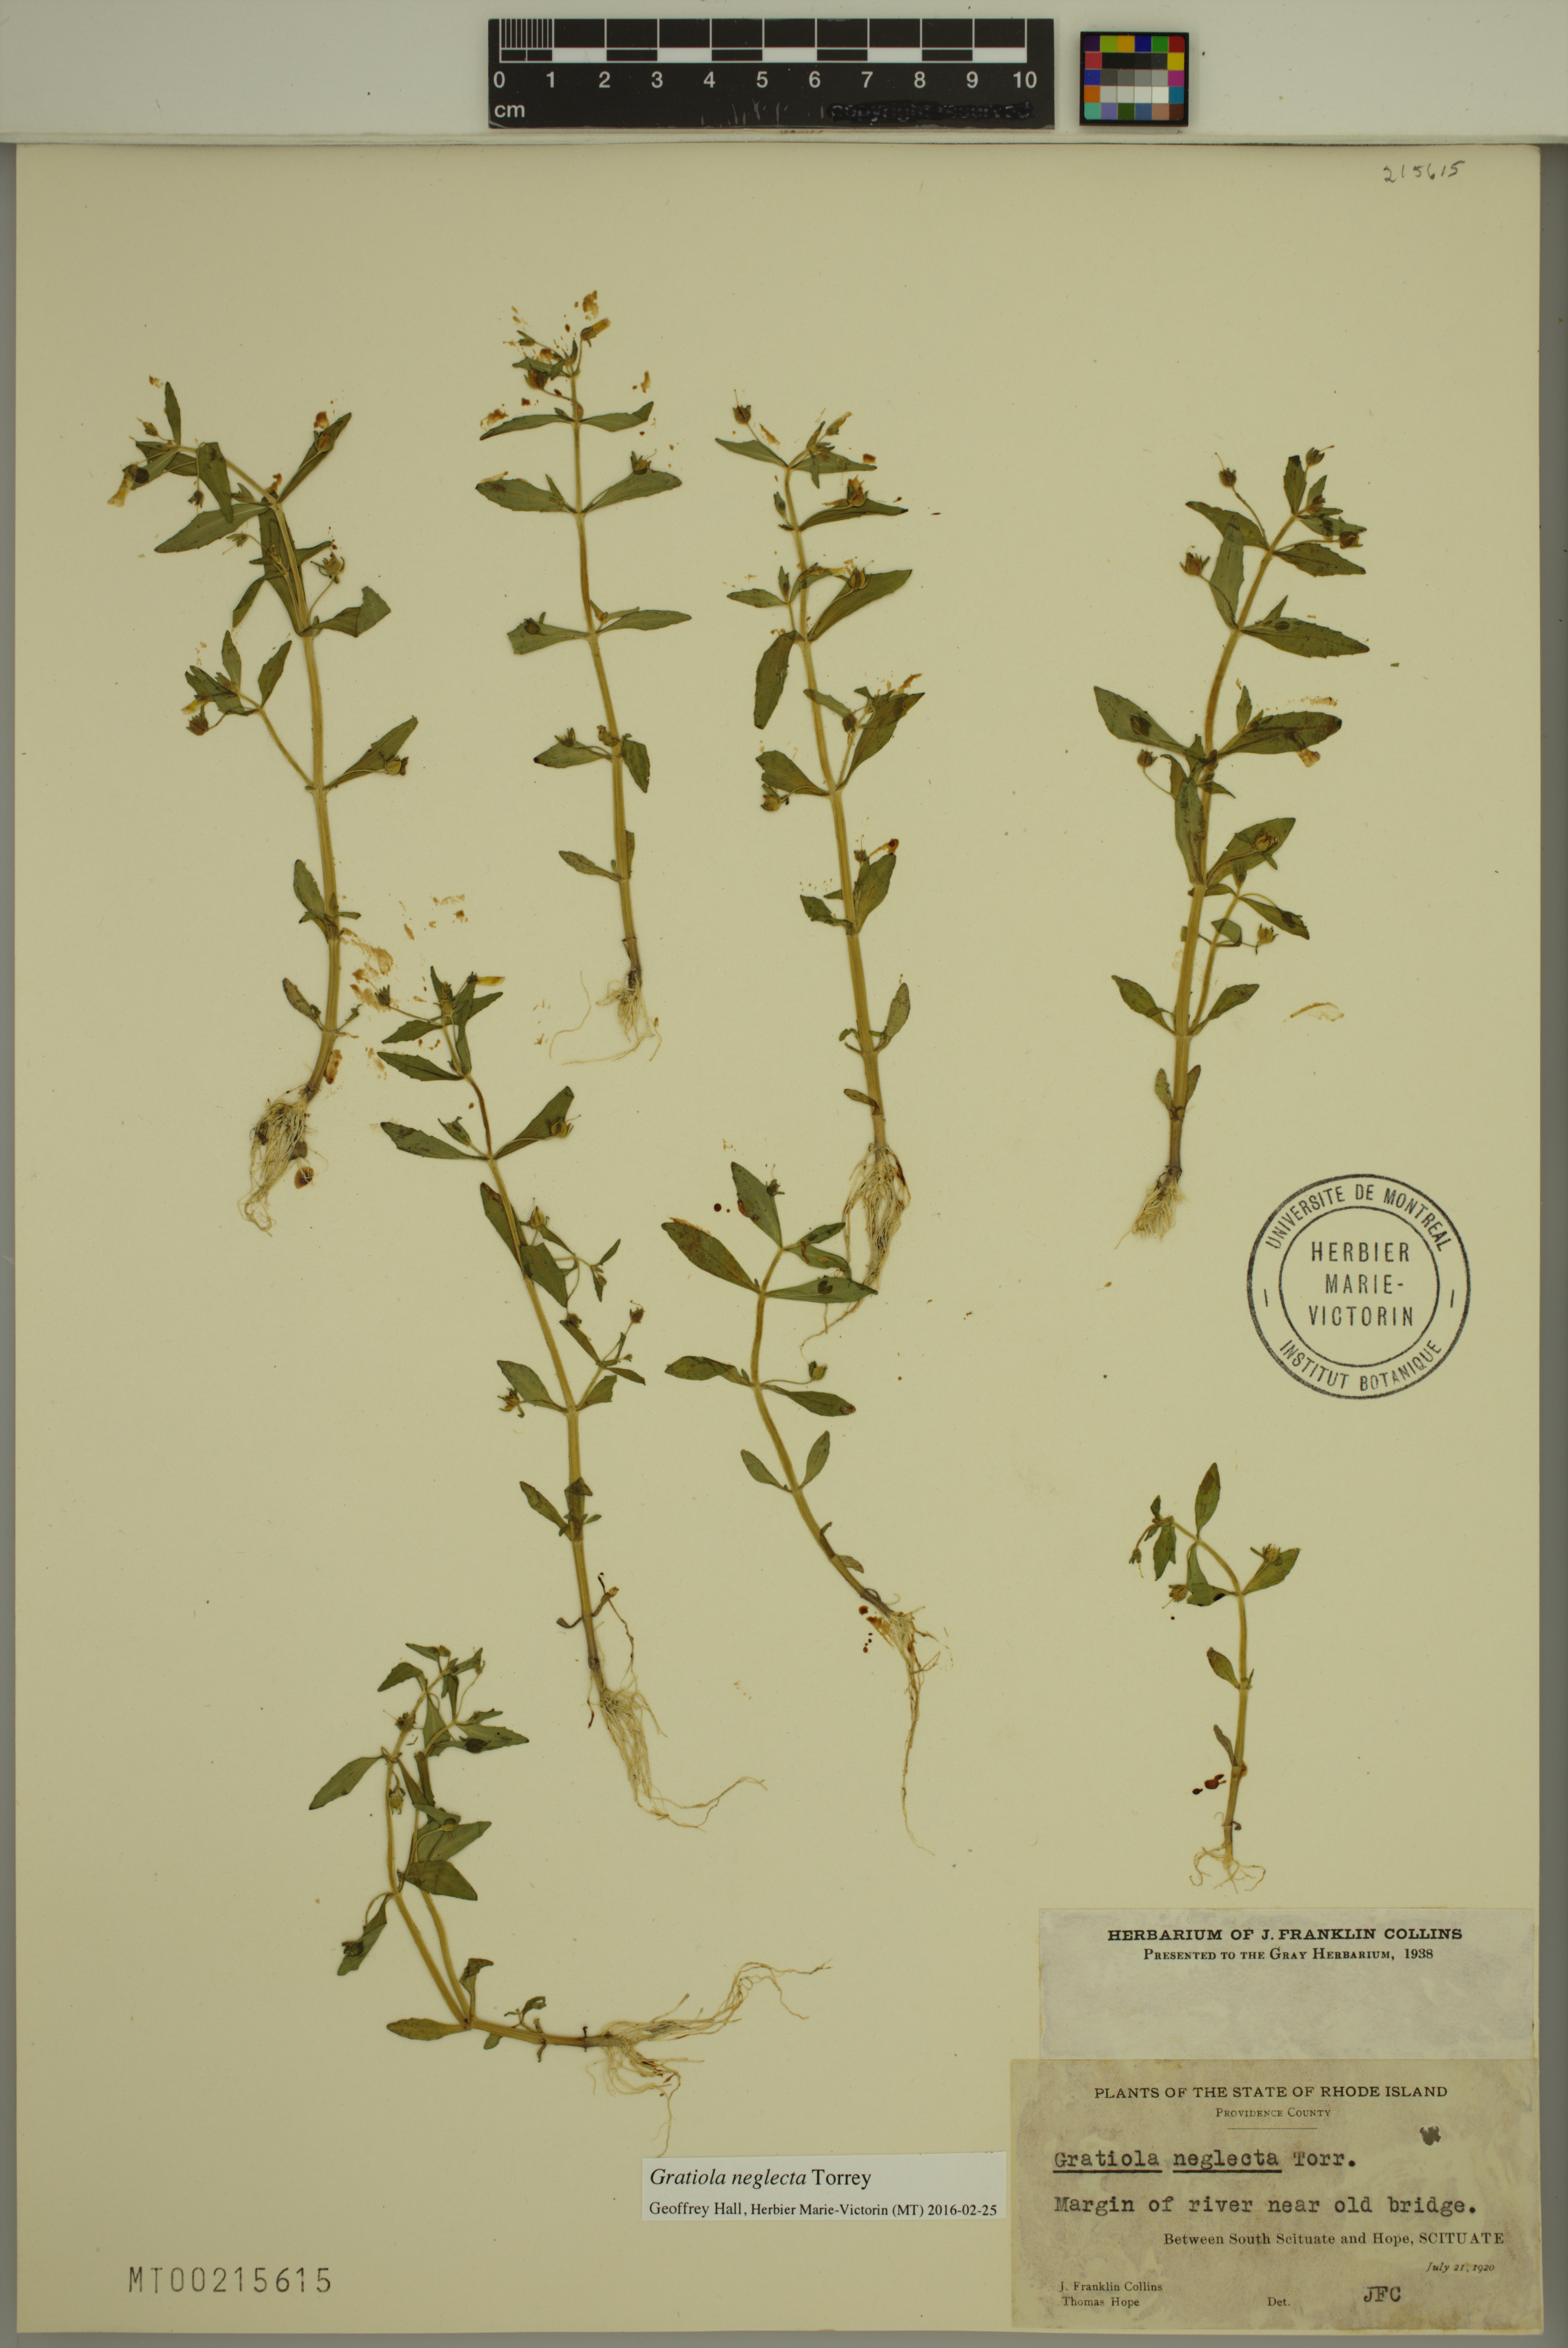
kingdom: Plantae
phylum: Tracheophyta
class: Magnoliopsida
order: Lamiales
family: Plantaginaceae
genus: Gratiola
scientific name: Gratiola neglecta
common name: American hedge-hyssop
